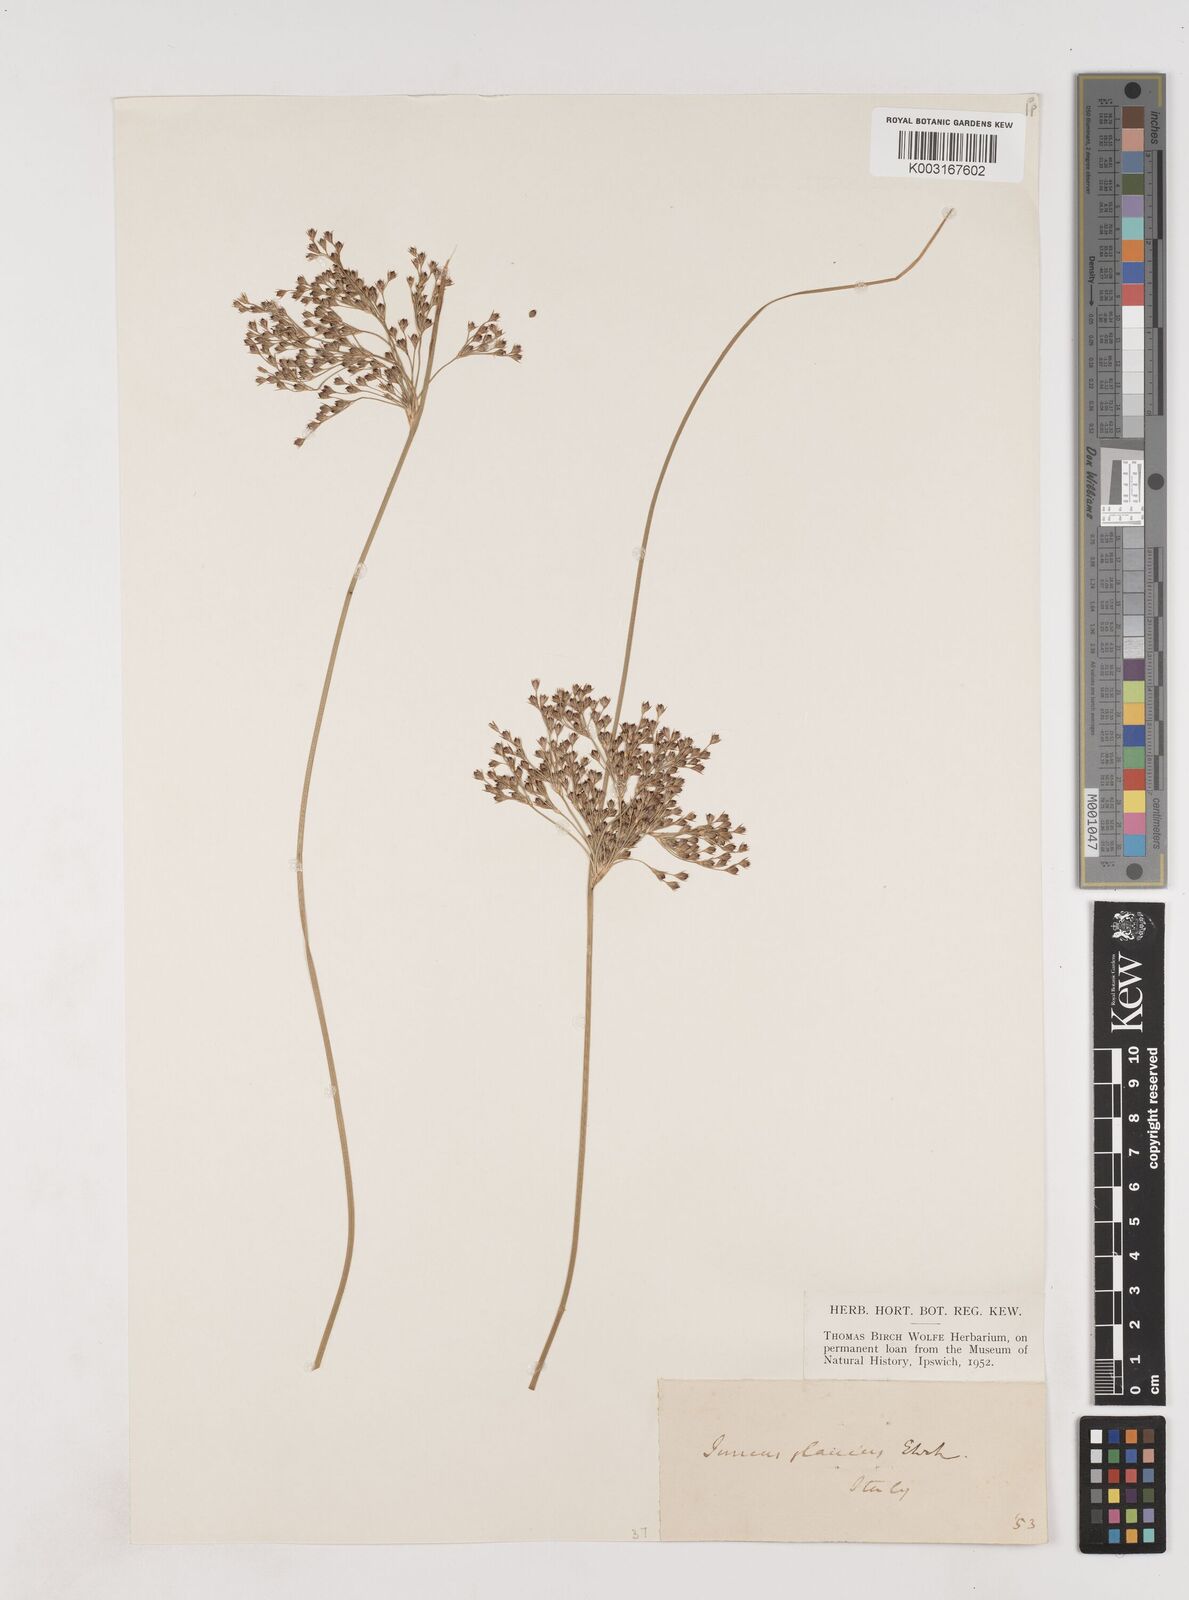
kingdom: Plantae
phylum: Tracheophyta
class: Liliopsida
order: Poales
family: Juncaceae
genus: Juncus
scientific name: Juncus inflexus
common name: Hard rush
